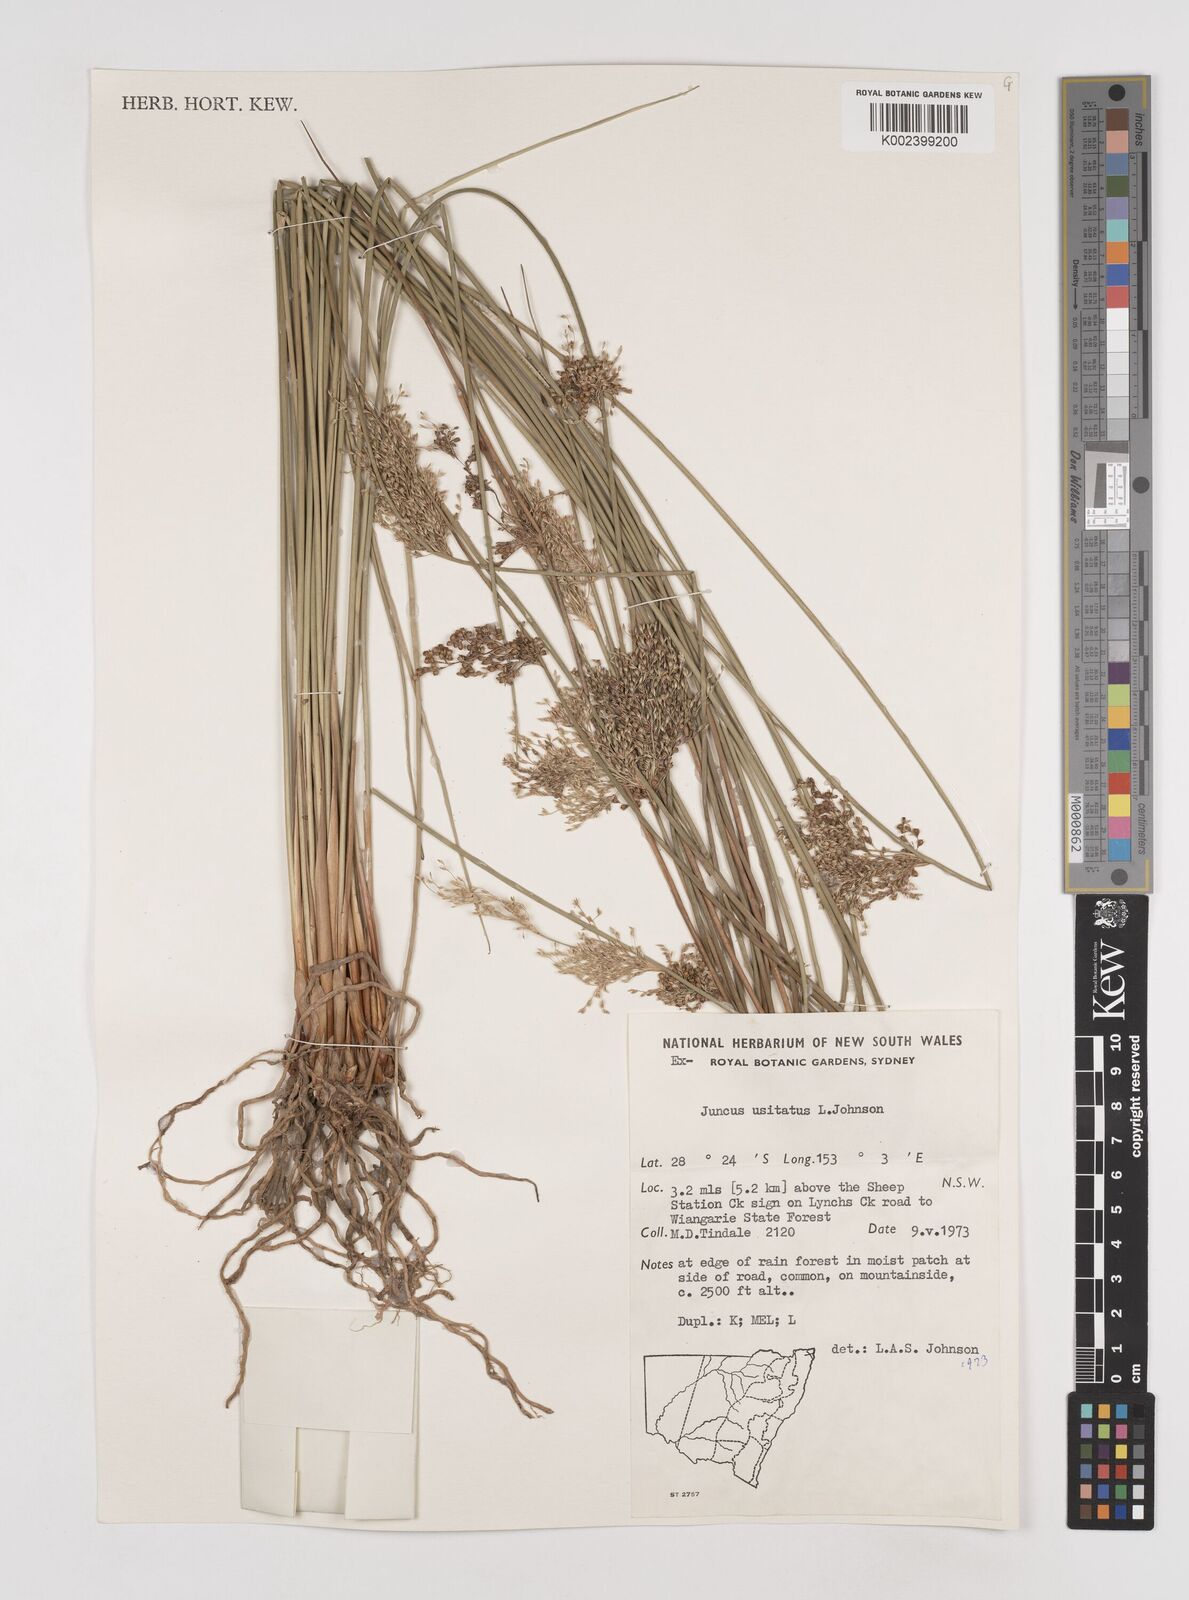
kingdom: Plantae
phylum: Tracheophyta
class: Liliopsida
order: Poales
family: Juncaceae
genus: Juncus
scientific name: Juncus usitatus
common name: Rush
